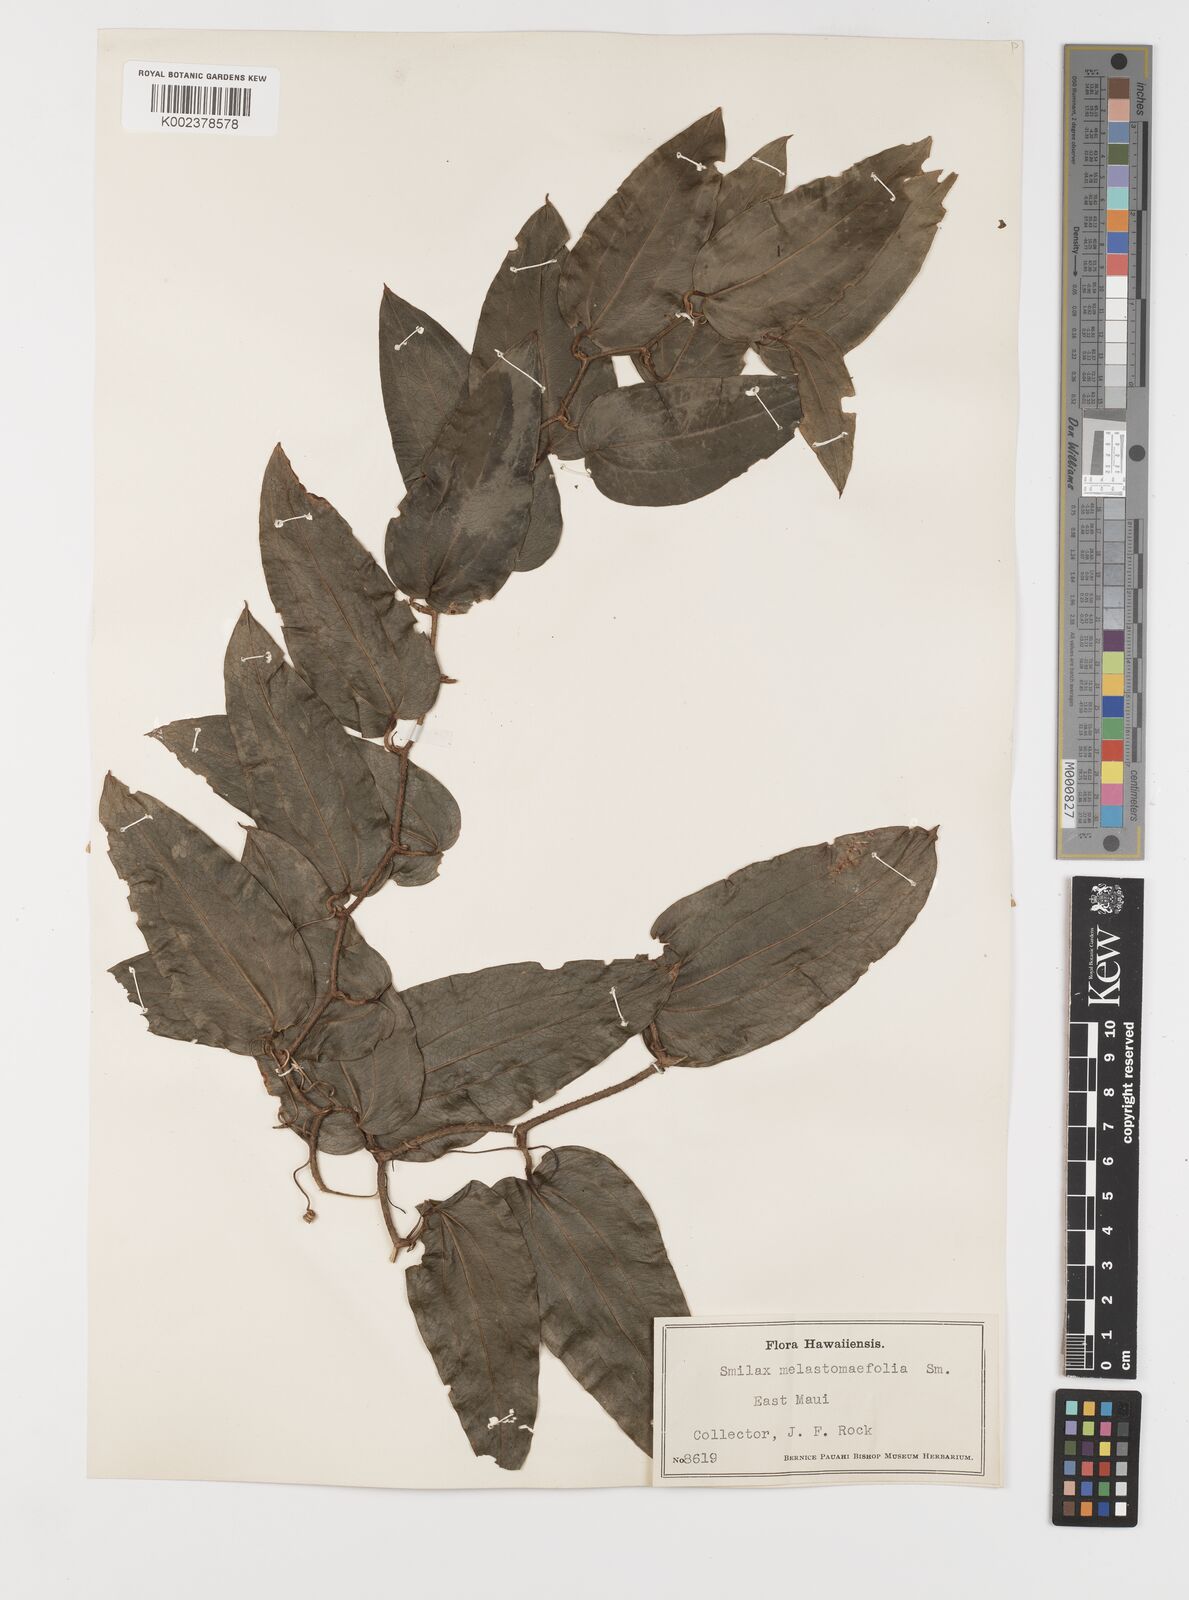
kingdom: Plantae
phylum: Tracheophyta
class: Liliopsida
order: Liliales
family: Smilacaceae
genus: Smilax
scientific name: Smilax melastomifolia
